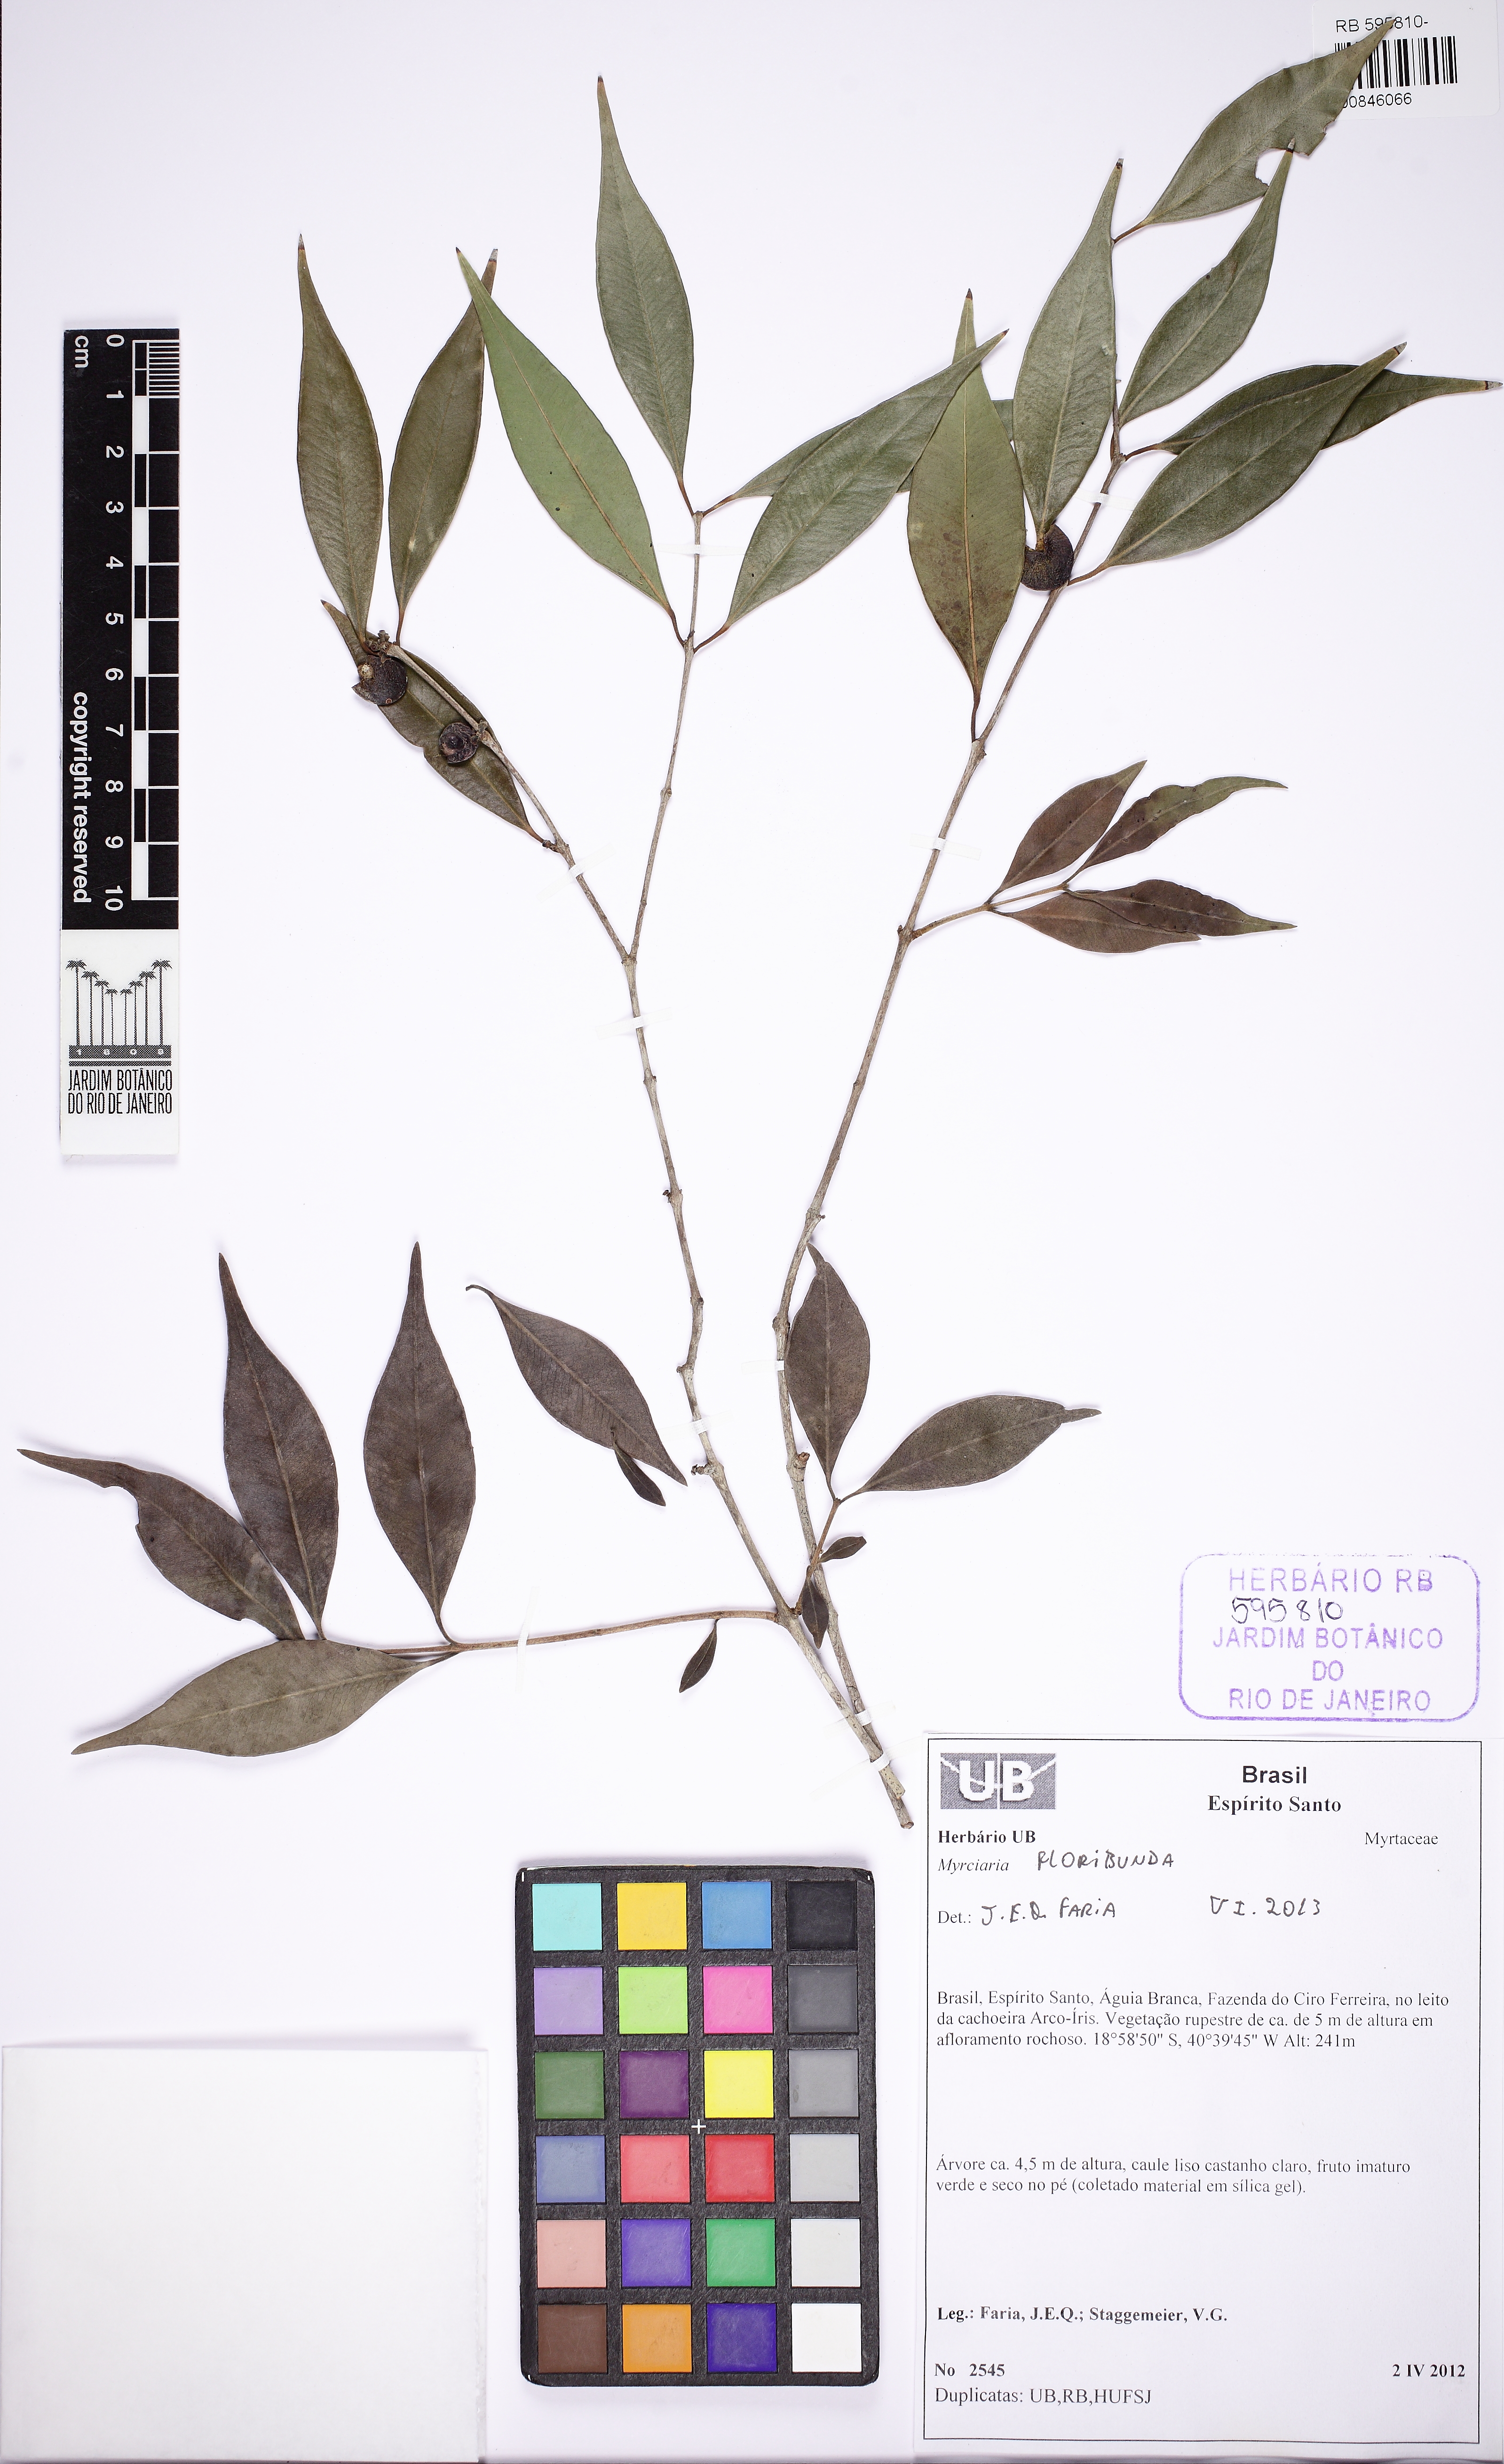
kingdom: Plantae
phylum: Tracheophyta
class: Magnoliopsida
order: Myrtales
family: Myrtaceae
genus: Myrciaria
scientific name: Myrciaria floribunda
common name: Guavaberry
